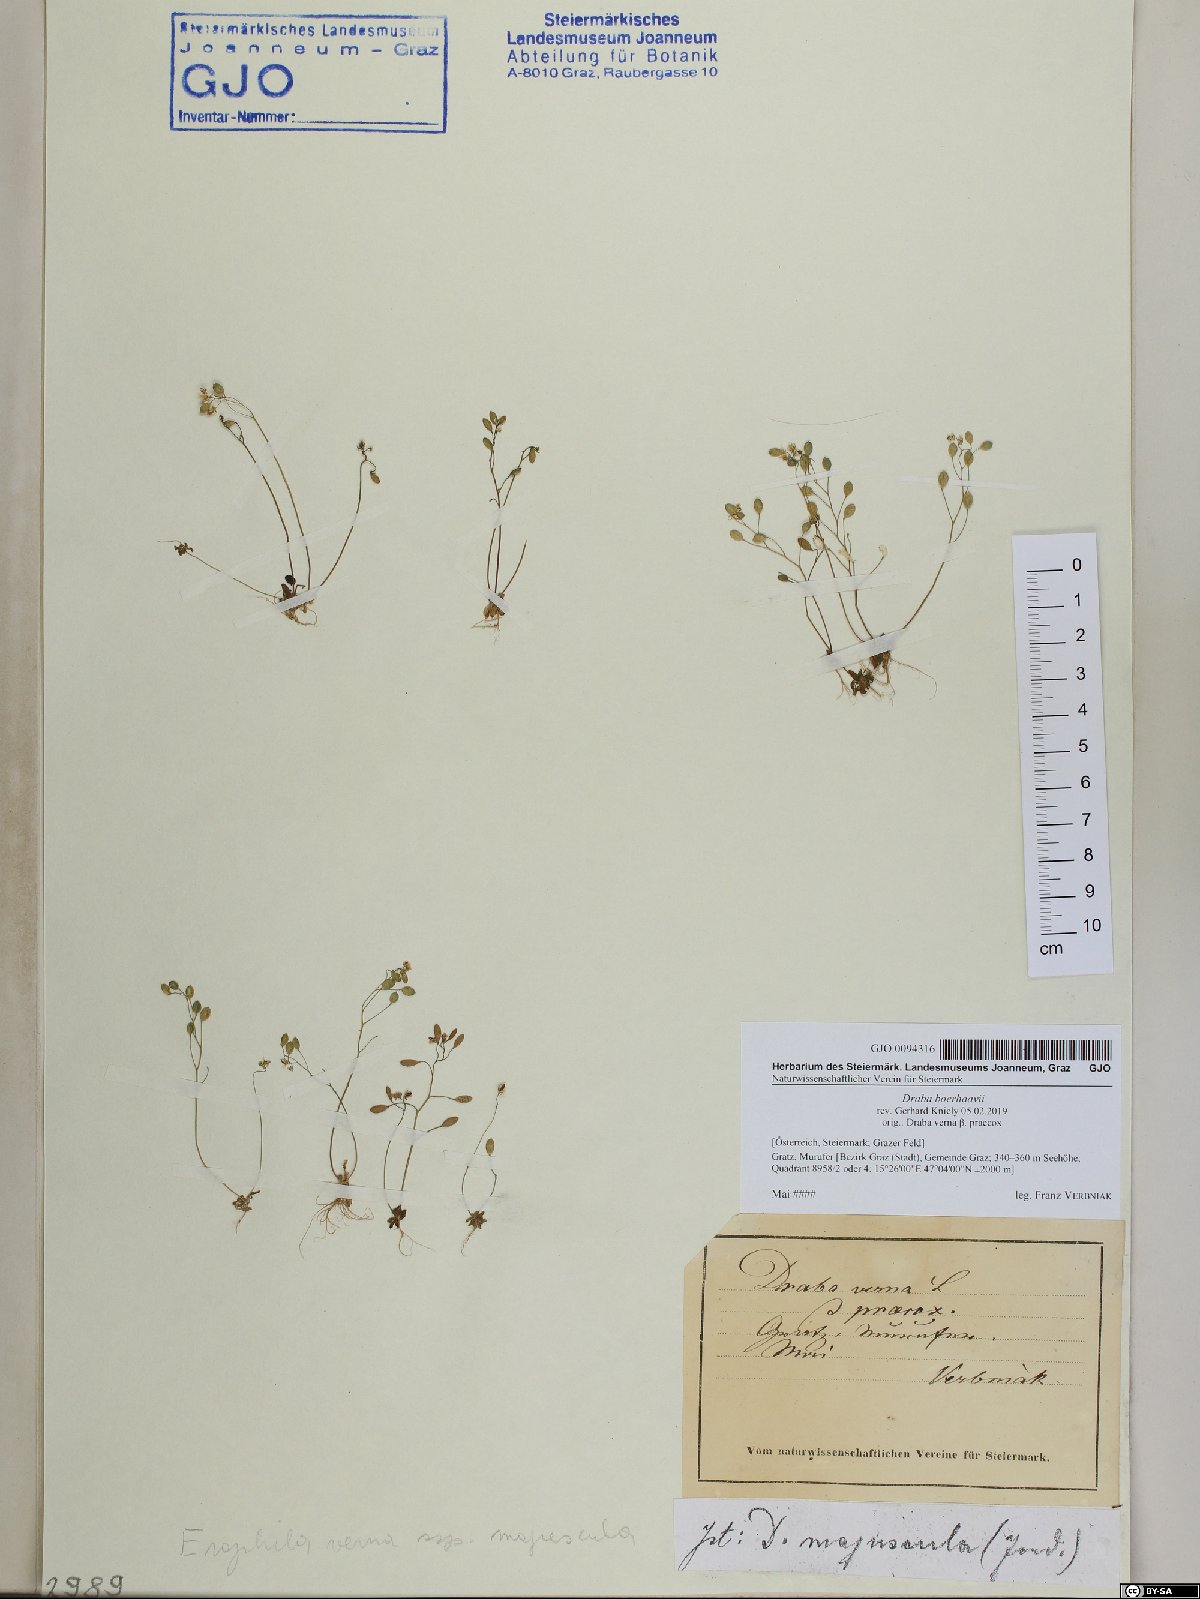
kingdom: Plantae
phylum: Tracheophyta
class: Magnoliopsida
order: Brassicales
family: Brassicaceae
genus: Draba
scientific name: Draba verna
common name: Spring draba
